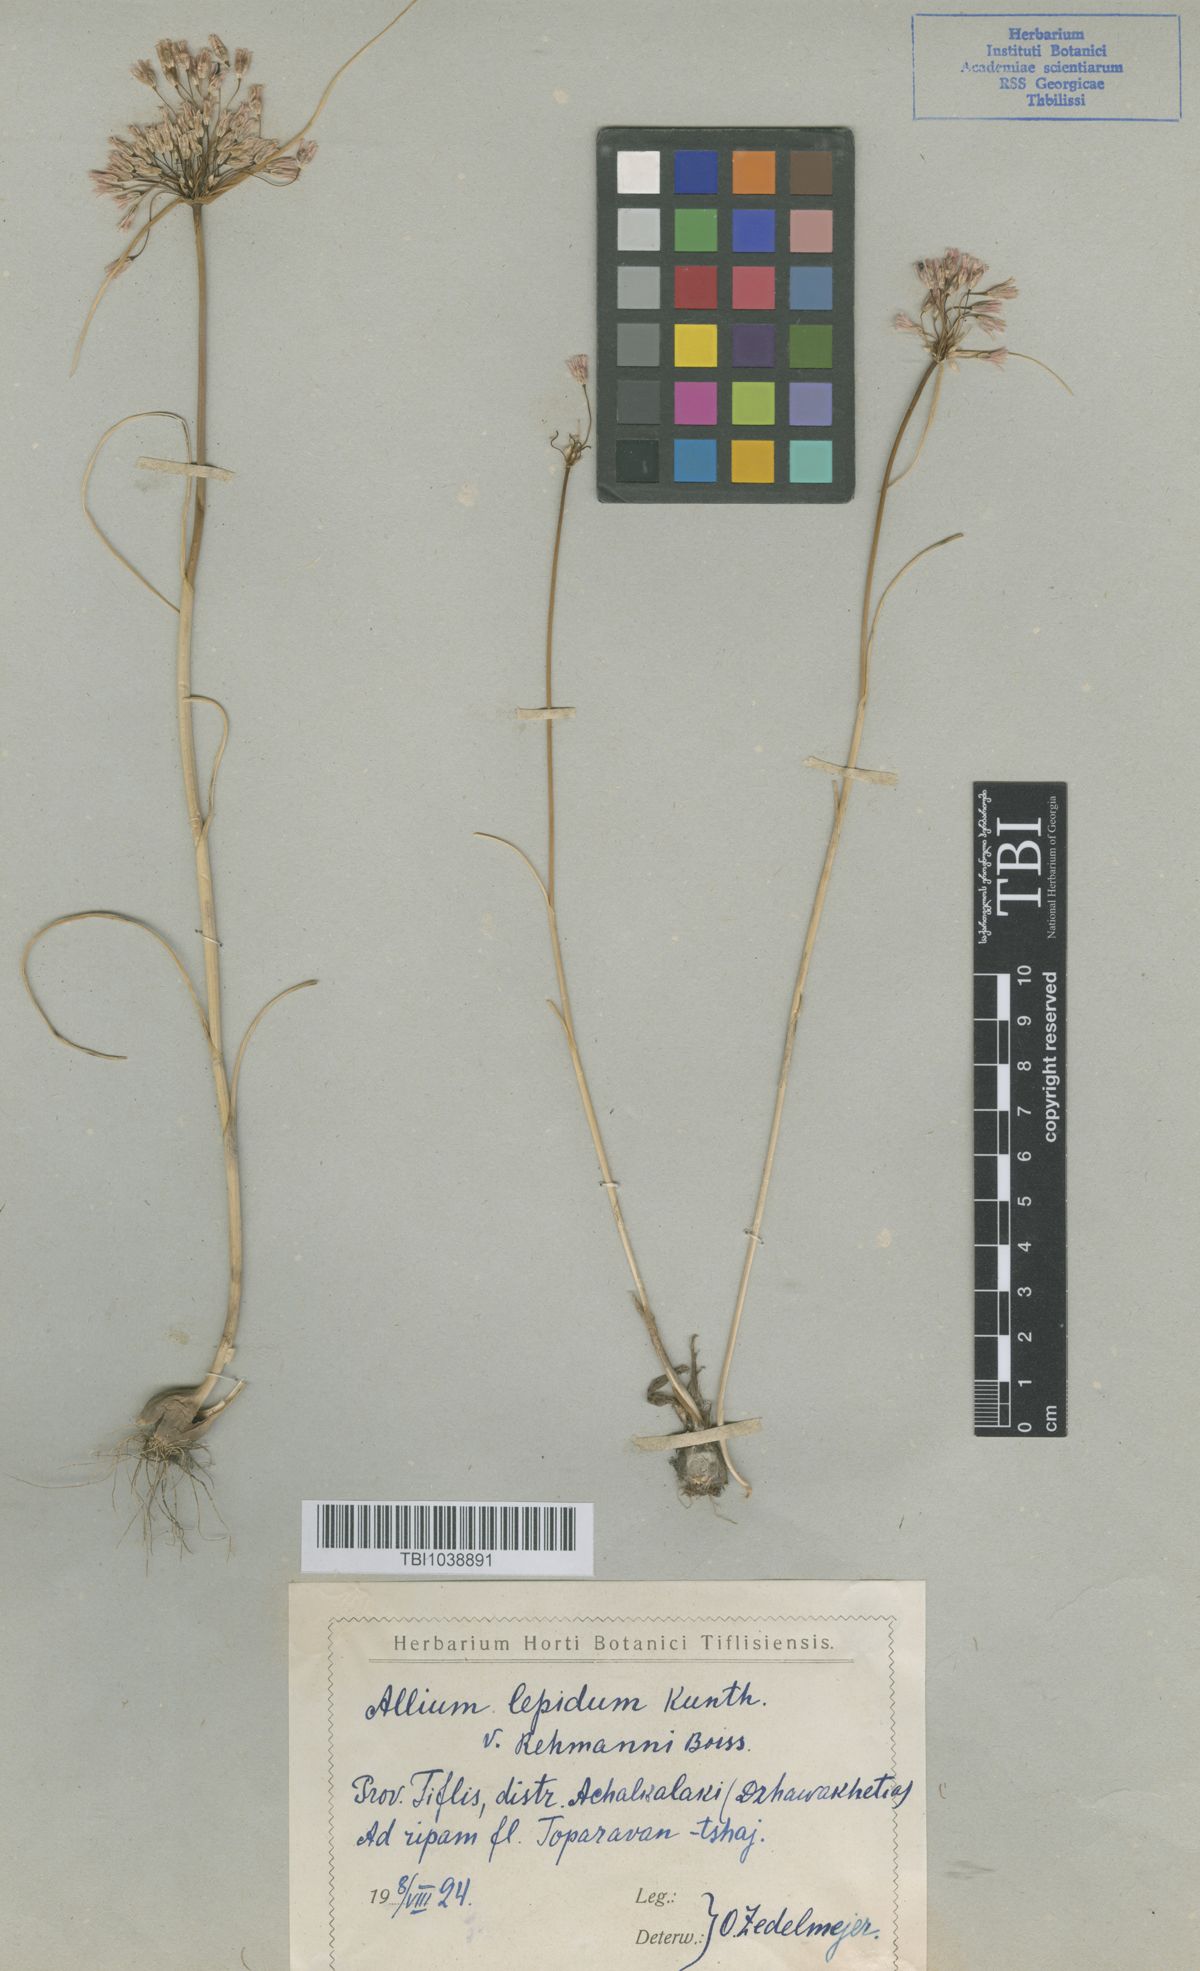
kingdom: Plantae
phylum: Tracheophyta
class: Liliopsida
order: Asparagales
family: Amaryllidaceae
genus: Allium
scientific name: Allium paniculatum
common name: Pale garlic
